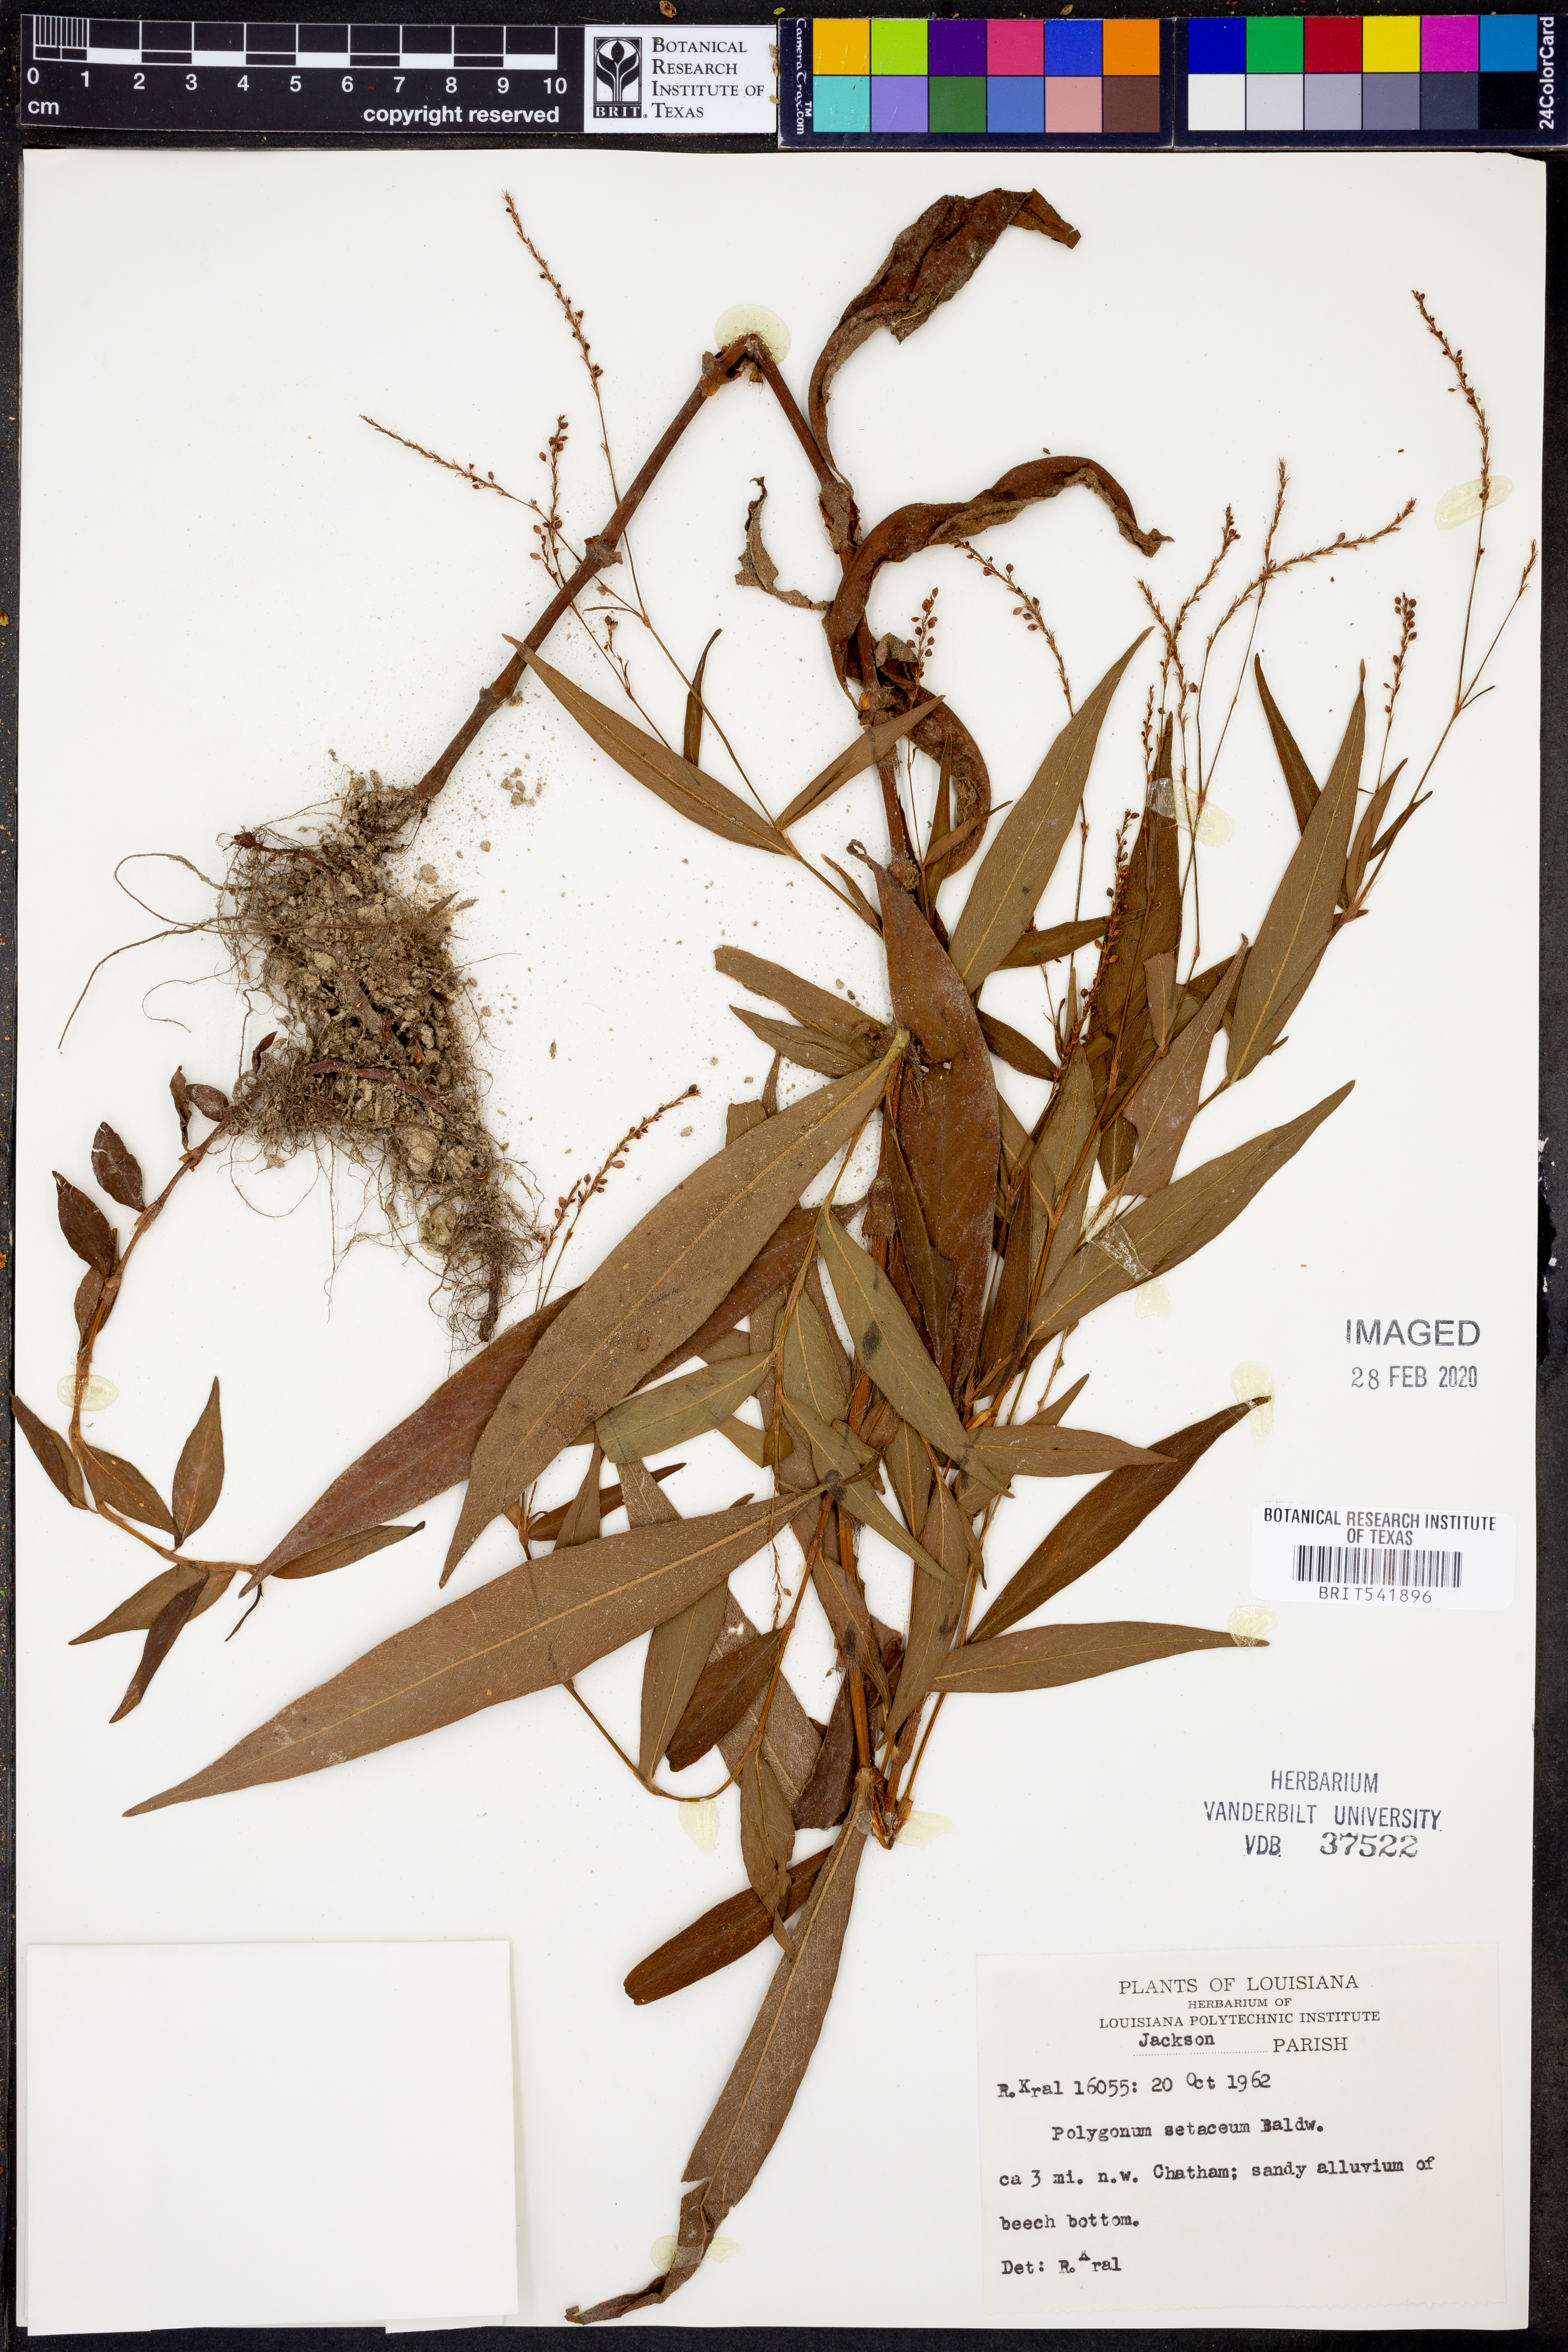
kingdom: Plantae
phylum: Tracheophyta
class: Magnoliopsida
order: Caryophyllales
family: Polygonaceae
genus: Persicaria
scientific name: Persicaria setacea
